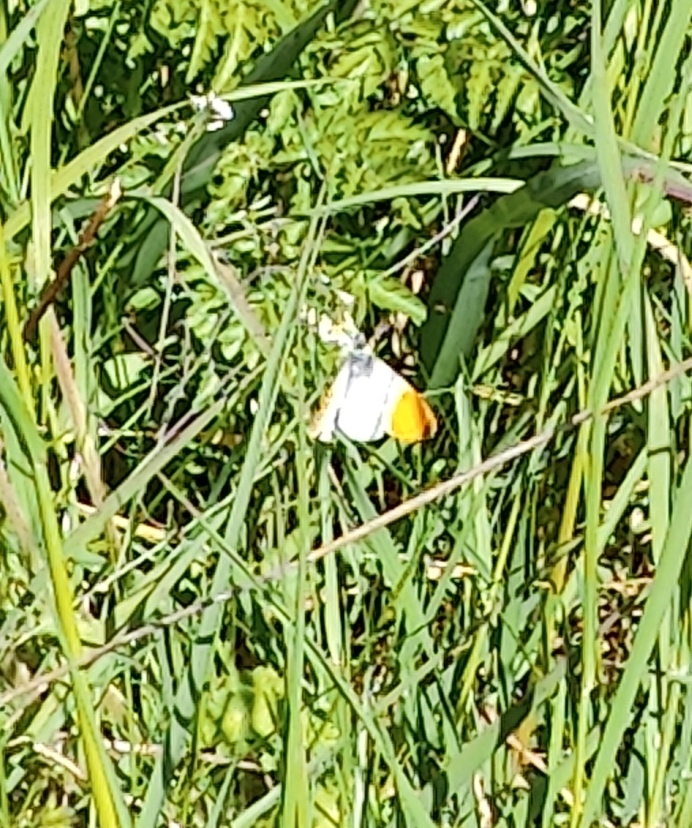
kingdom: Animalia
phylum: Arthropoda
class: Insecta
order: Lepidoptera
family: Pieridae
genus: Anthocharis
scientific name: Anthocharis cardamines
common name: Aurora
